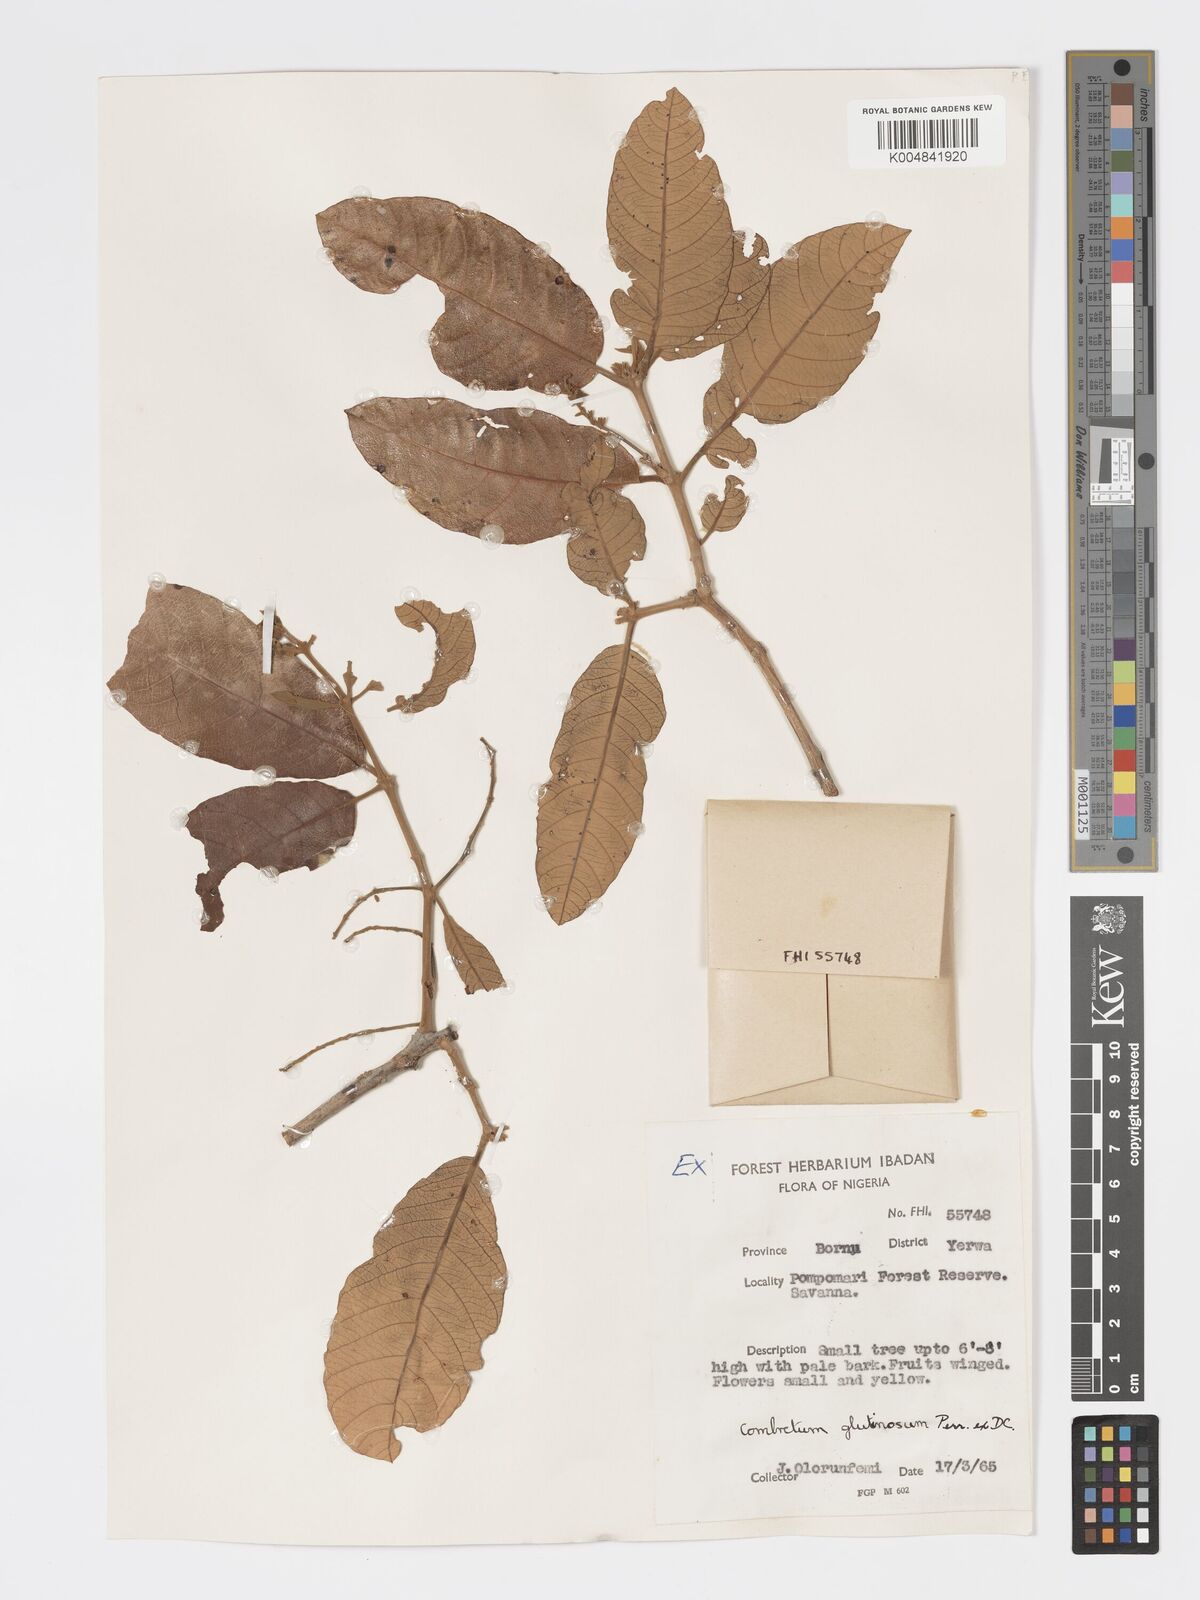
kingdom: Plantae
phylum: Tracheophyta
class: Magnoliopsida
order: Myrtales
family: Combretaceae
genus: Combretum
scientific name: Combretum
